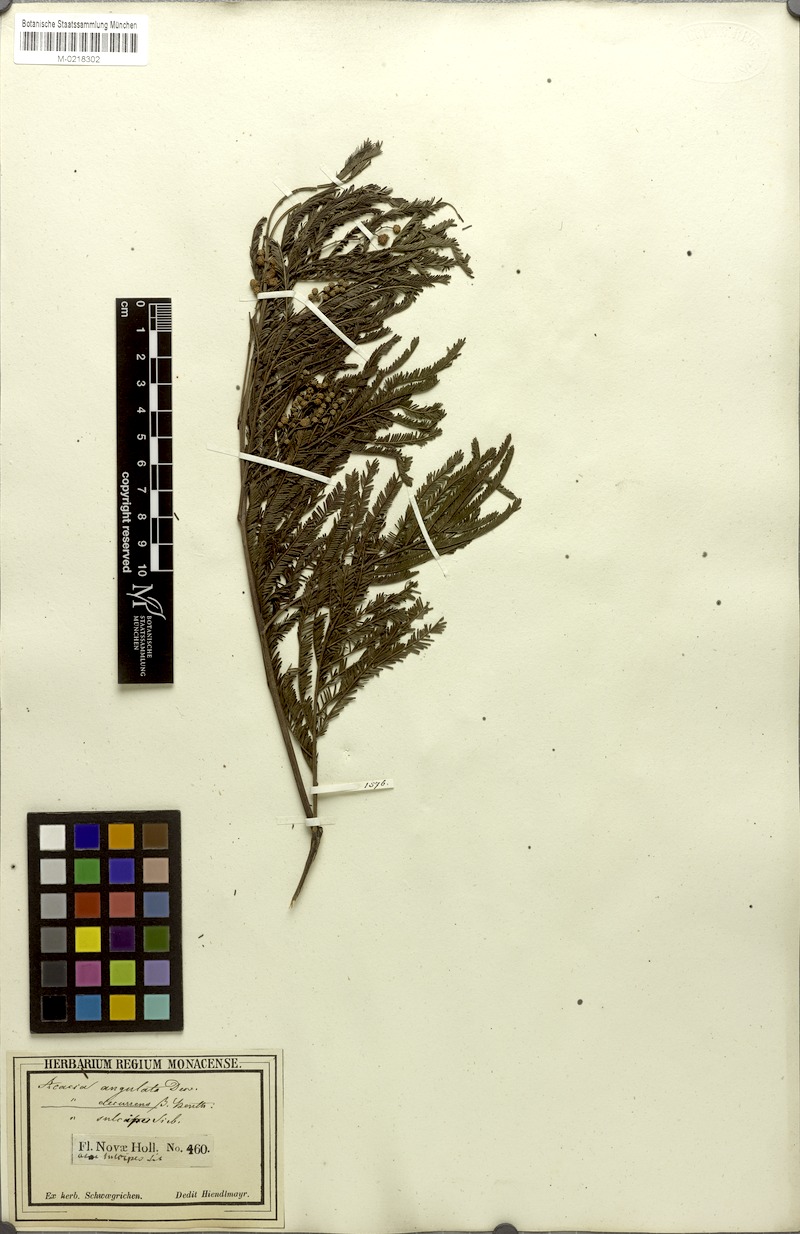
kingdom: Plantae
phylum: Tracheophyta
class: Magnoliopsida
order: Fabales
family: Fabaceae
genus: Acacia
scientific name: Acacia parramattensis
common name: Sydney green wattle
